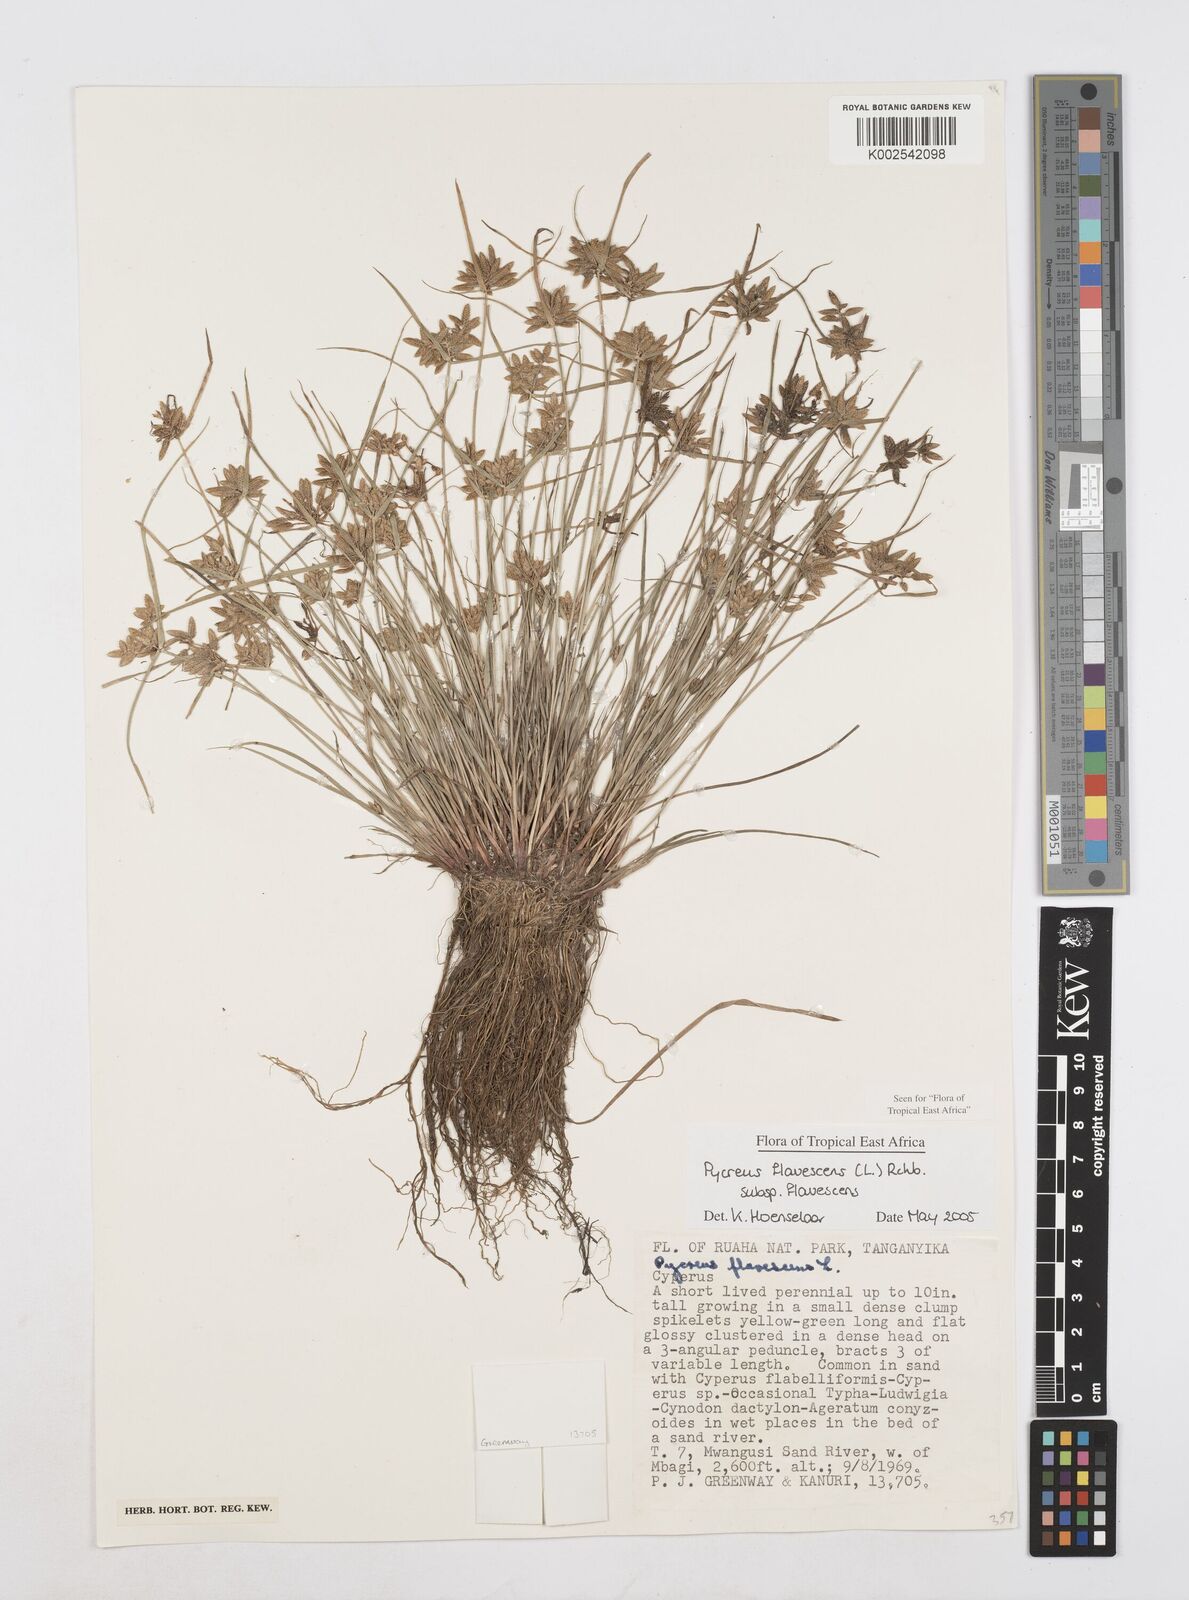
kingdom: Plantae
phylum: Tracheophyta
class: Liliopsida
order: Poales
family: Cyperaceae
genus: Cyperus
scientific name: Cyperus flavescens
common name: Yellow galingale
